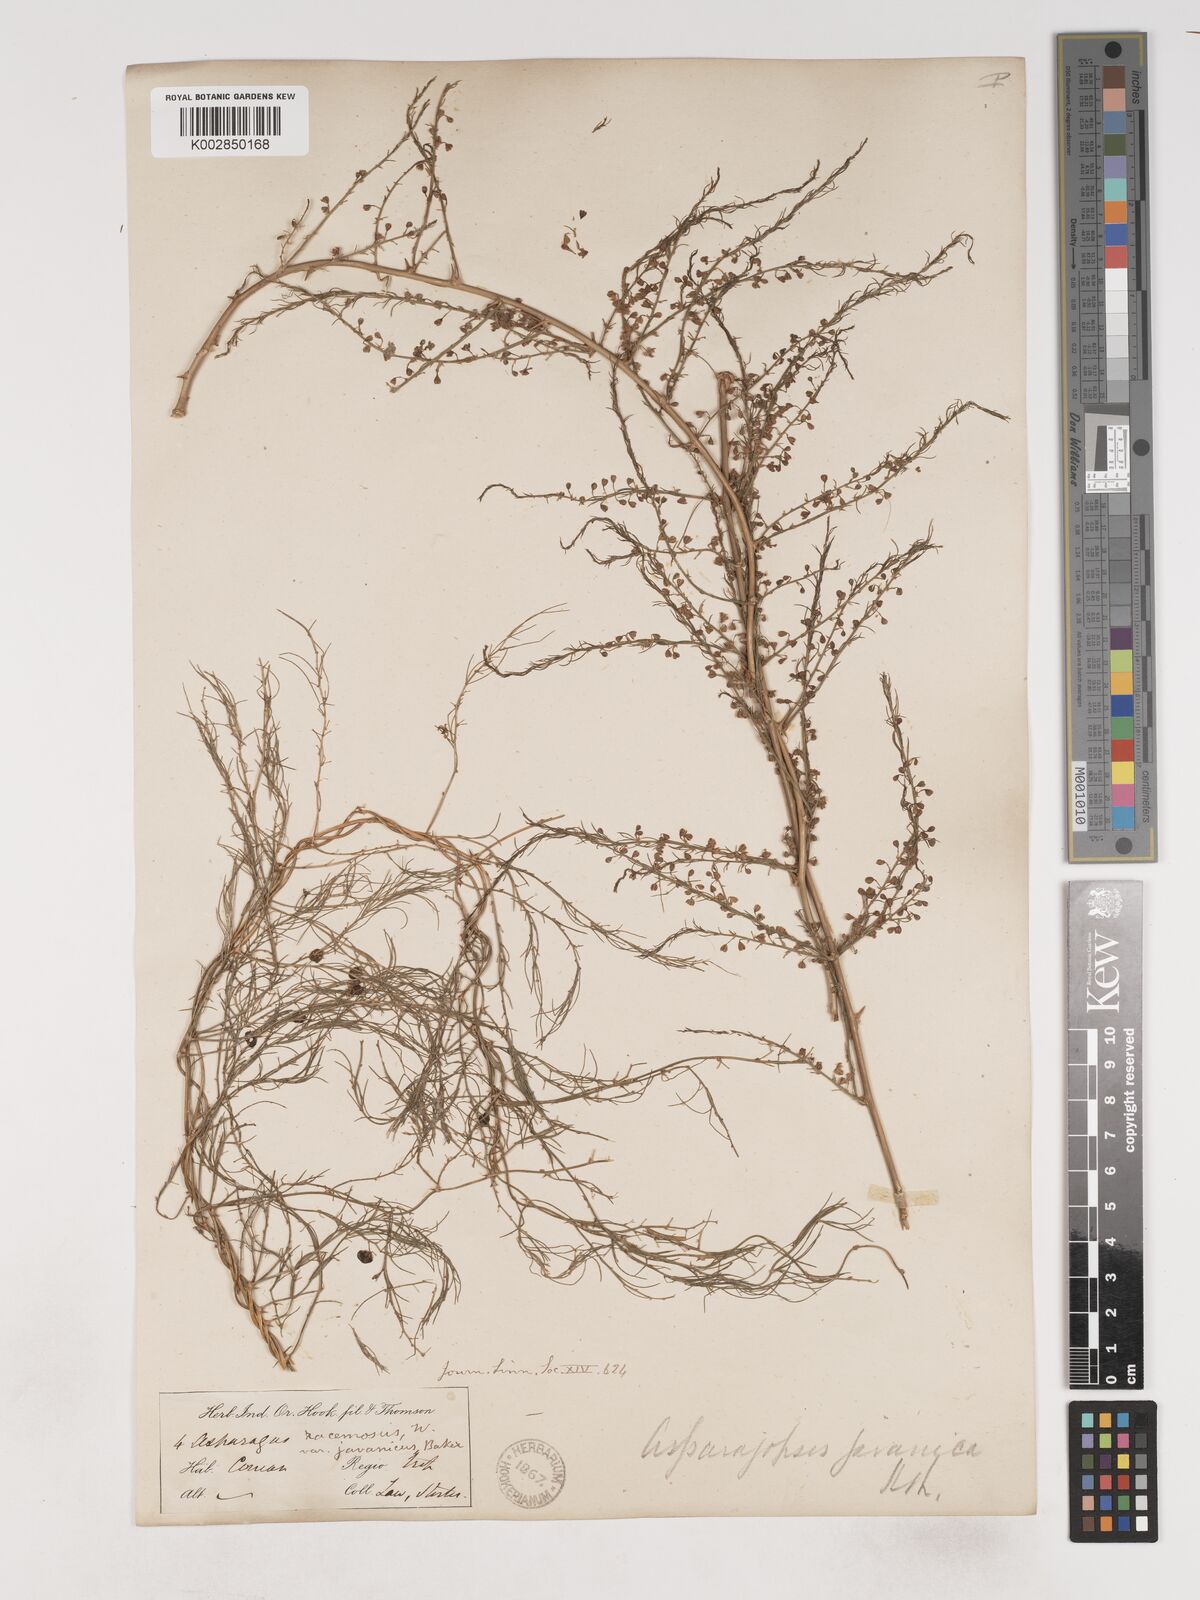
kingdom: Plantae
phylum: Tracheophyta
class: Liliopsida
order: Asparagales
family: Asparagaceae
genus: Asparagus
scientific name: Asparagus racemosus
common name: Asparagus-fern
